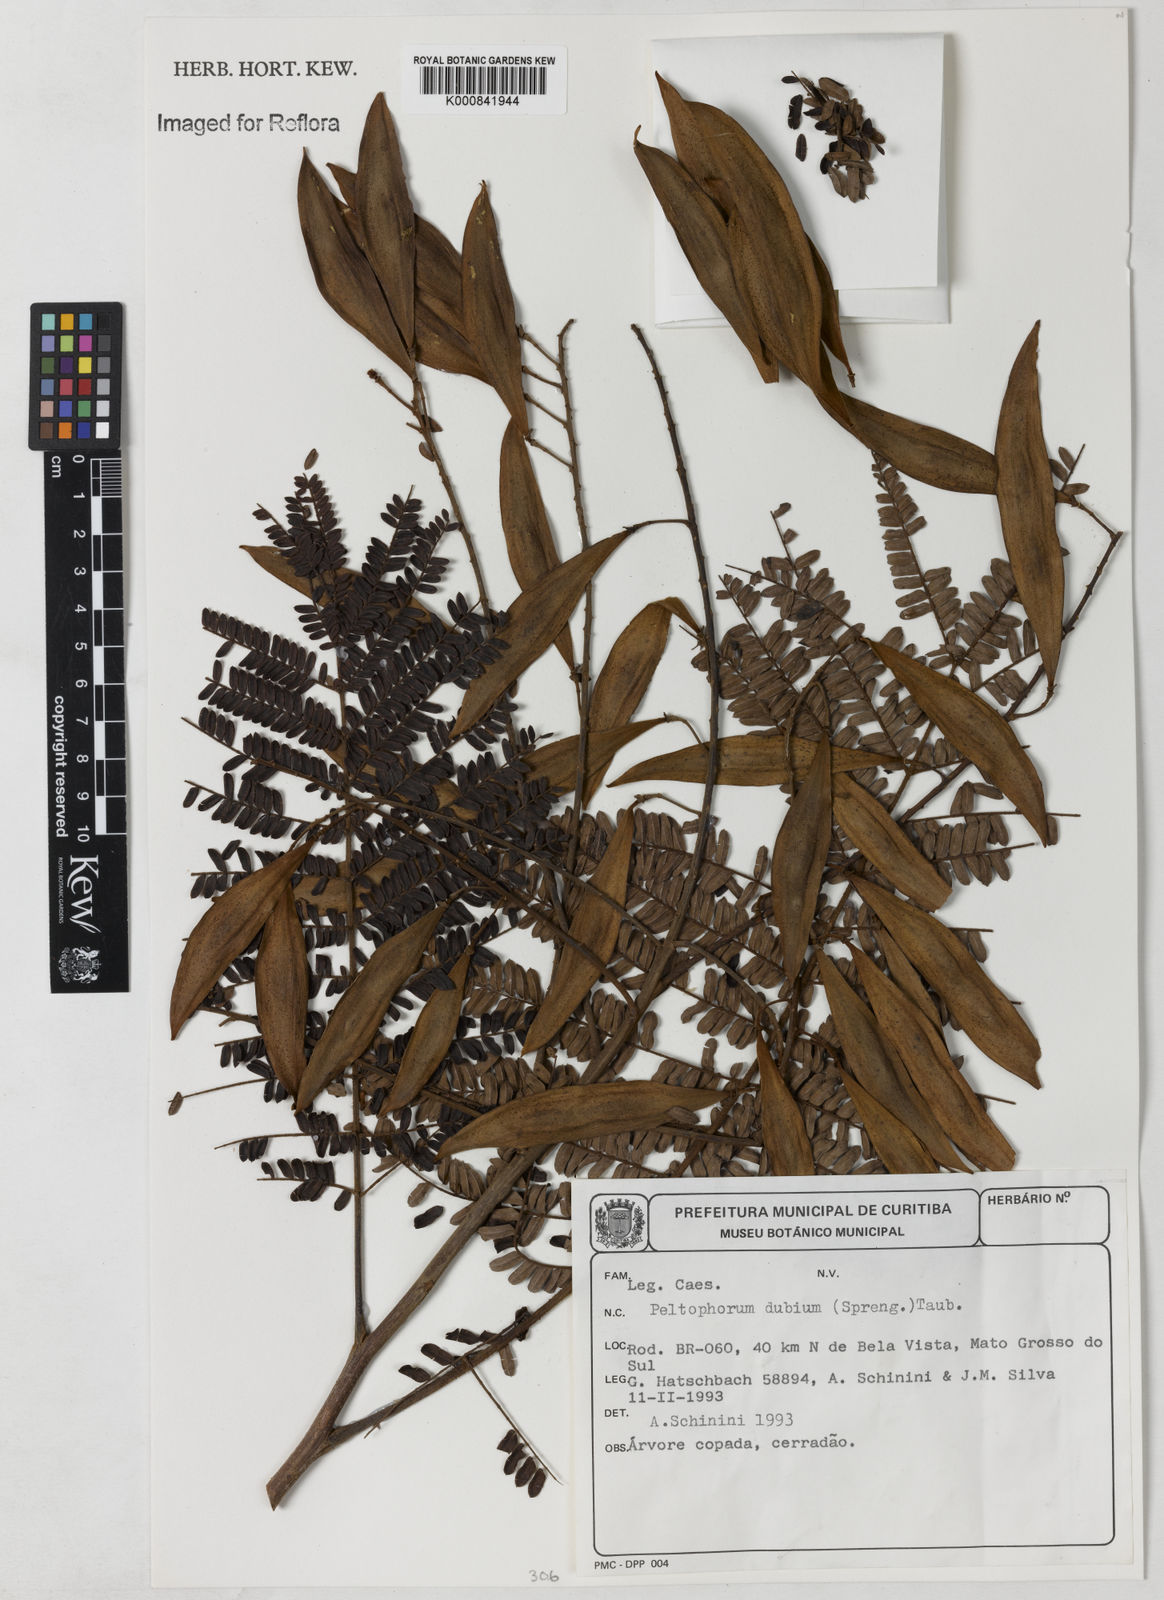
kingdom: Plantae
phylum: Tracheophyta
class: Magnoliopsida
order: Fabales
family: Fabaceae
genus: Peltophorum
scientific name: Peltophorum dubium
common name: Horsebush
